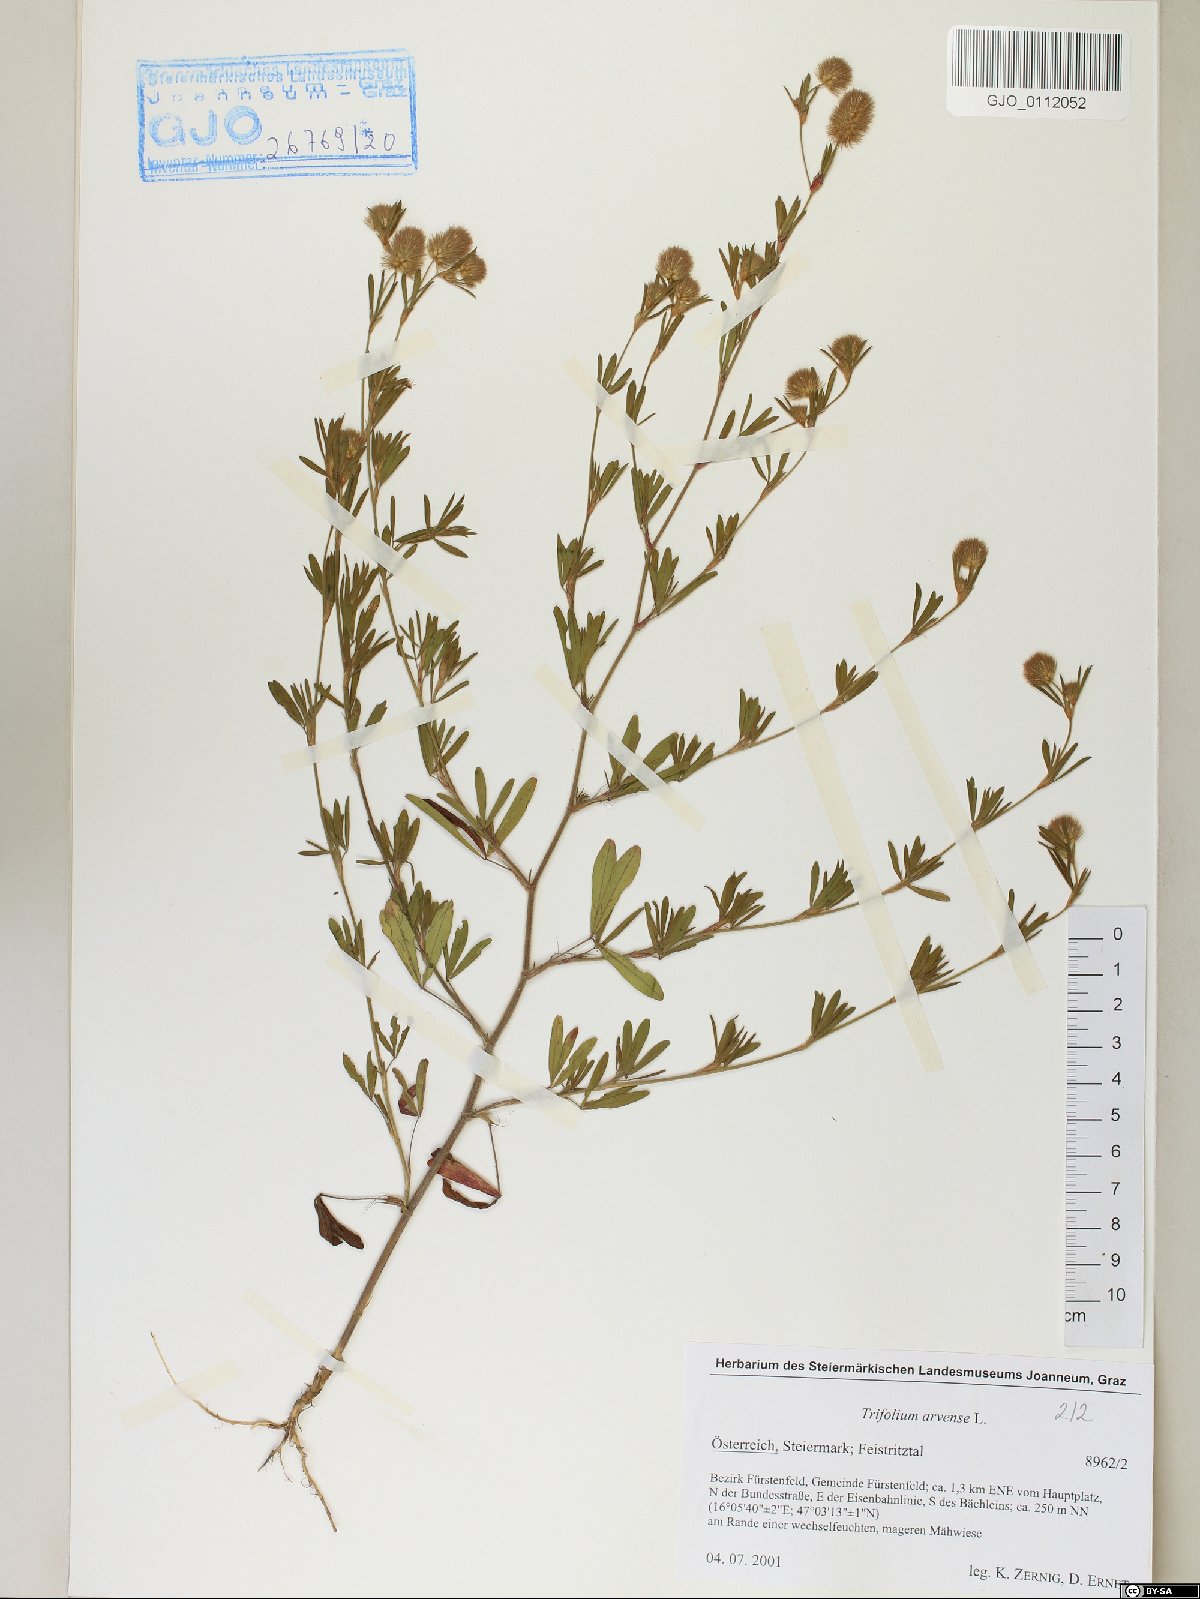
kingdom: Plantae
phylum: Tracheophyta
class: Magnoliopsida
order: Fabales
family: Fabaceae
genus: Trifolium
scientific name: Trifolium arvense
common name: Hare's-foot clover
